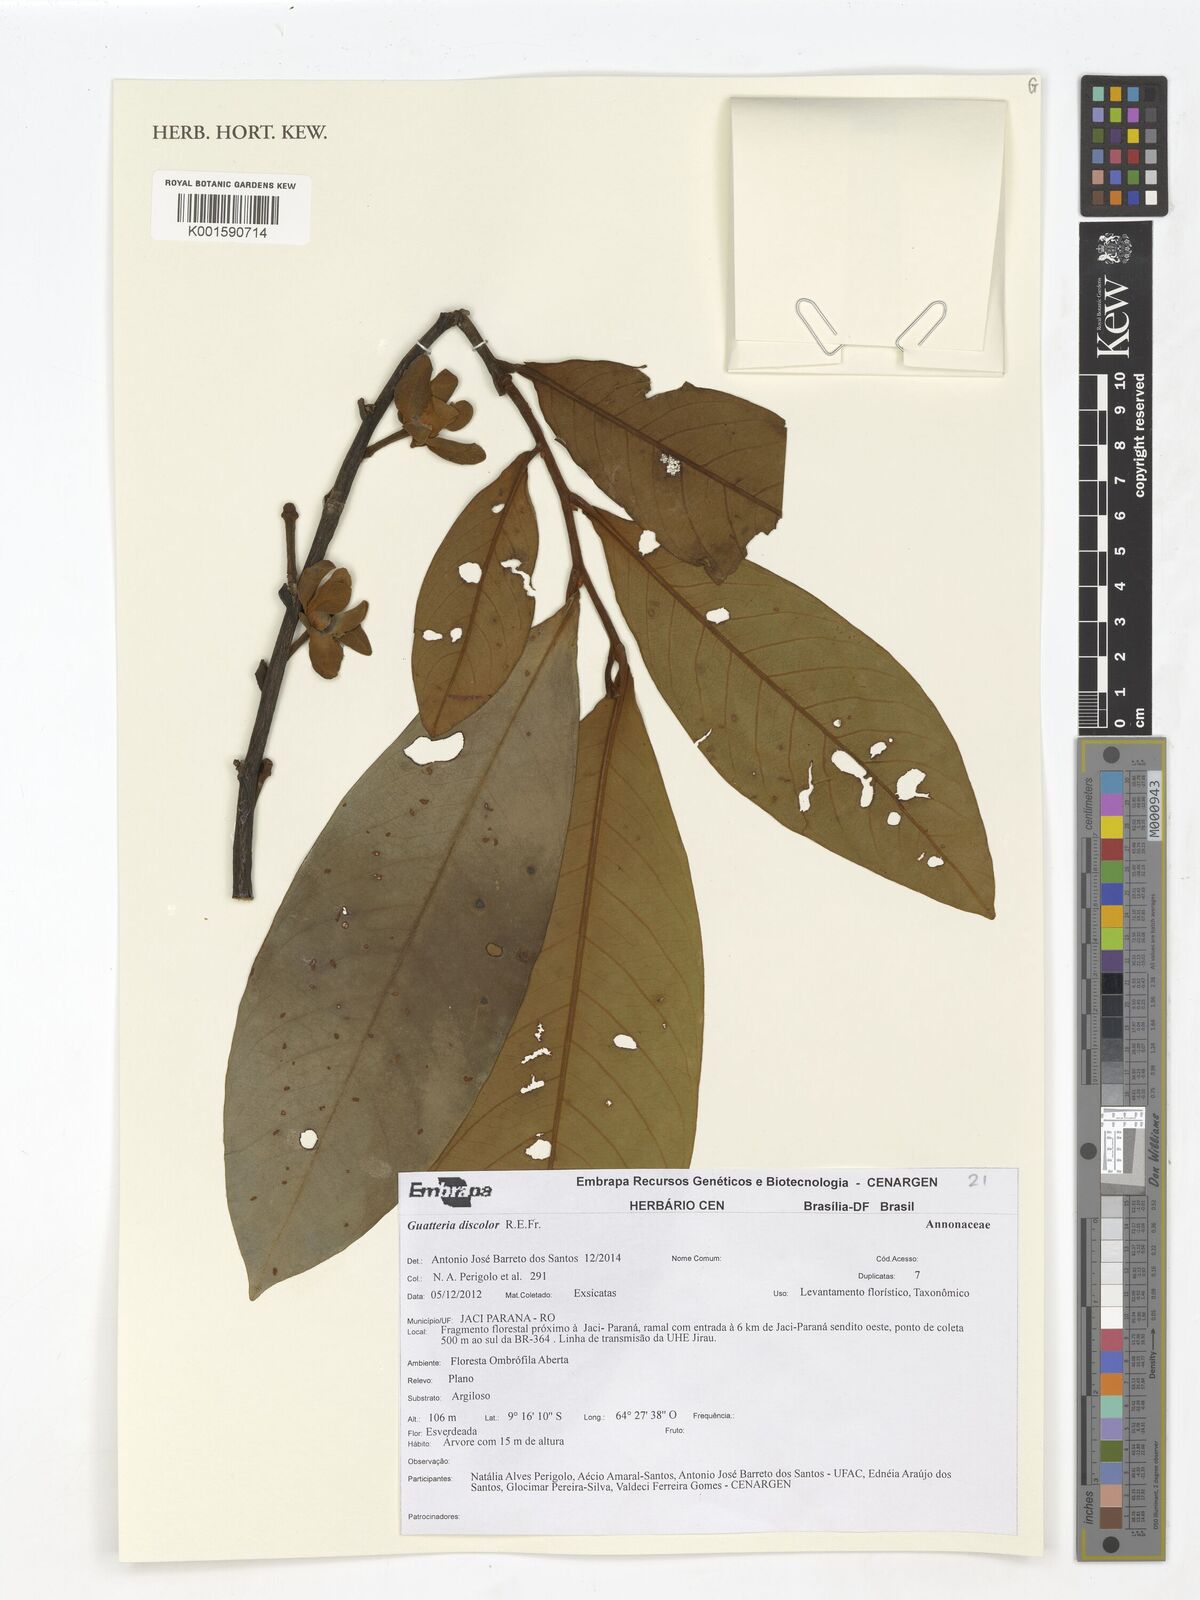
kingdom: Plantae
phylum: Tracheophyta
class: Magnoliopsida
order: Magnoliales
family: Annonaceae
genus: Guatteria
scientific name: Guatteria discolor
